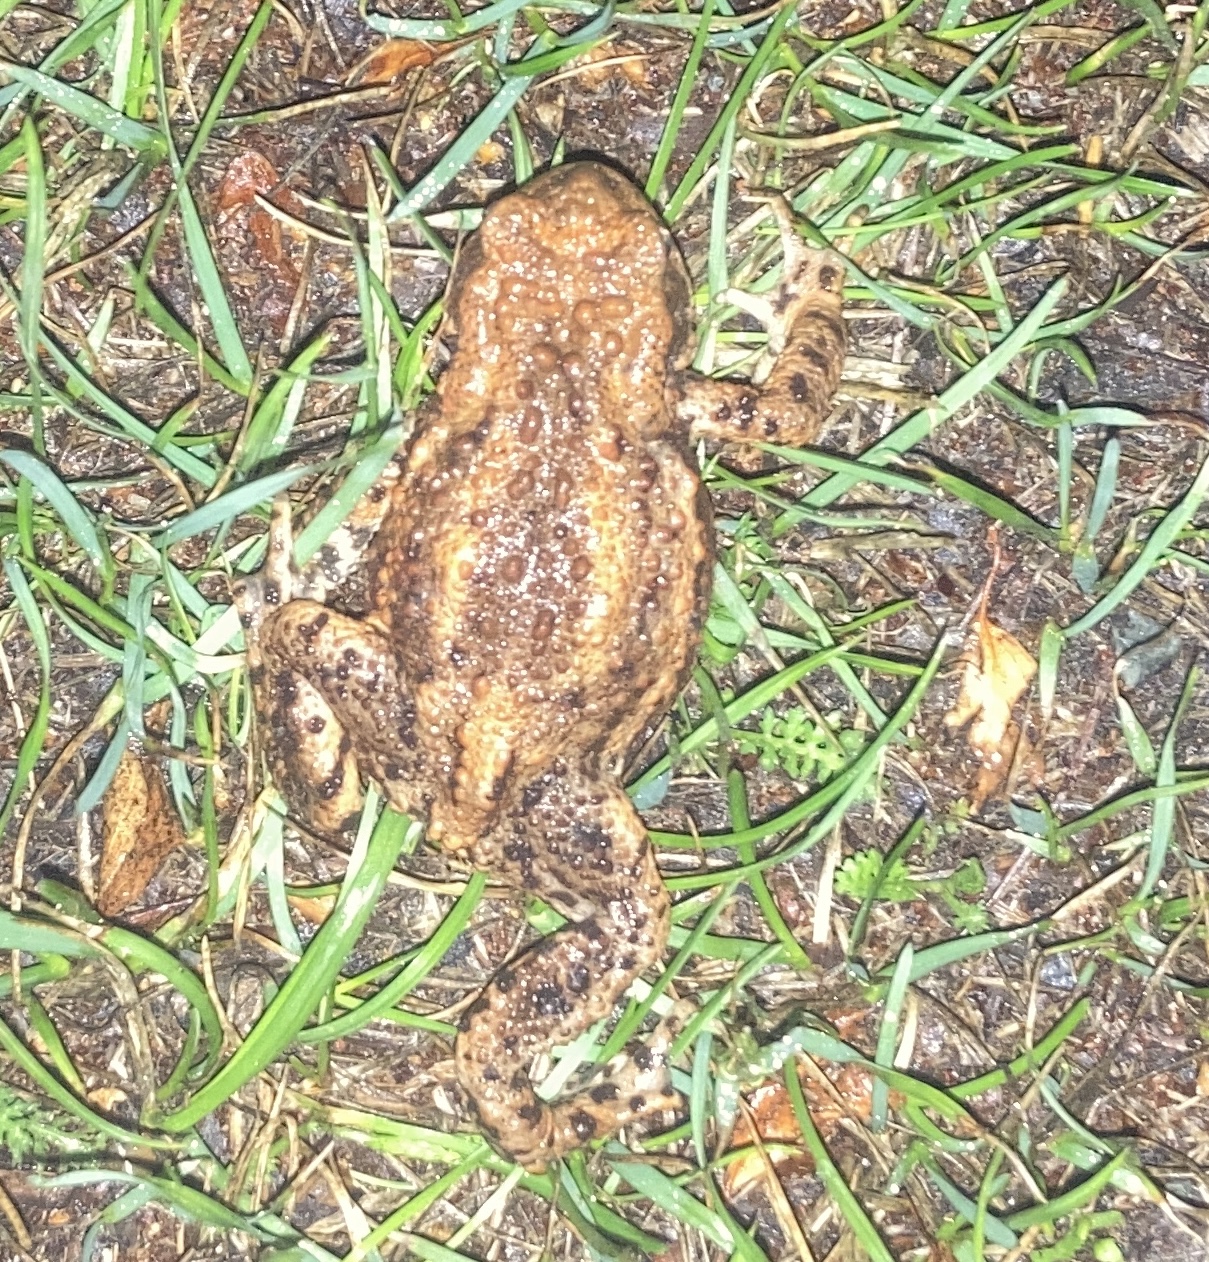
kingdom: Animalia
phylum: Chordata
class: Amphibia
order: Anura
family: Bufonidae
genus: Bufo
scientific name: Bufo bufo
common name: Skrubtudse
